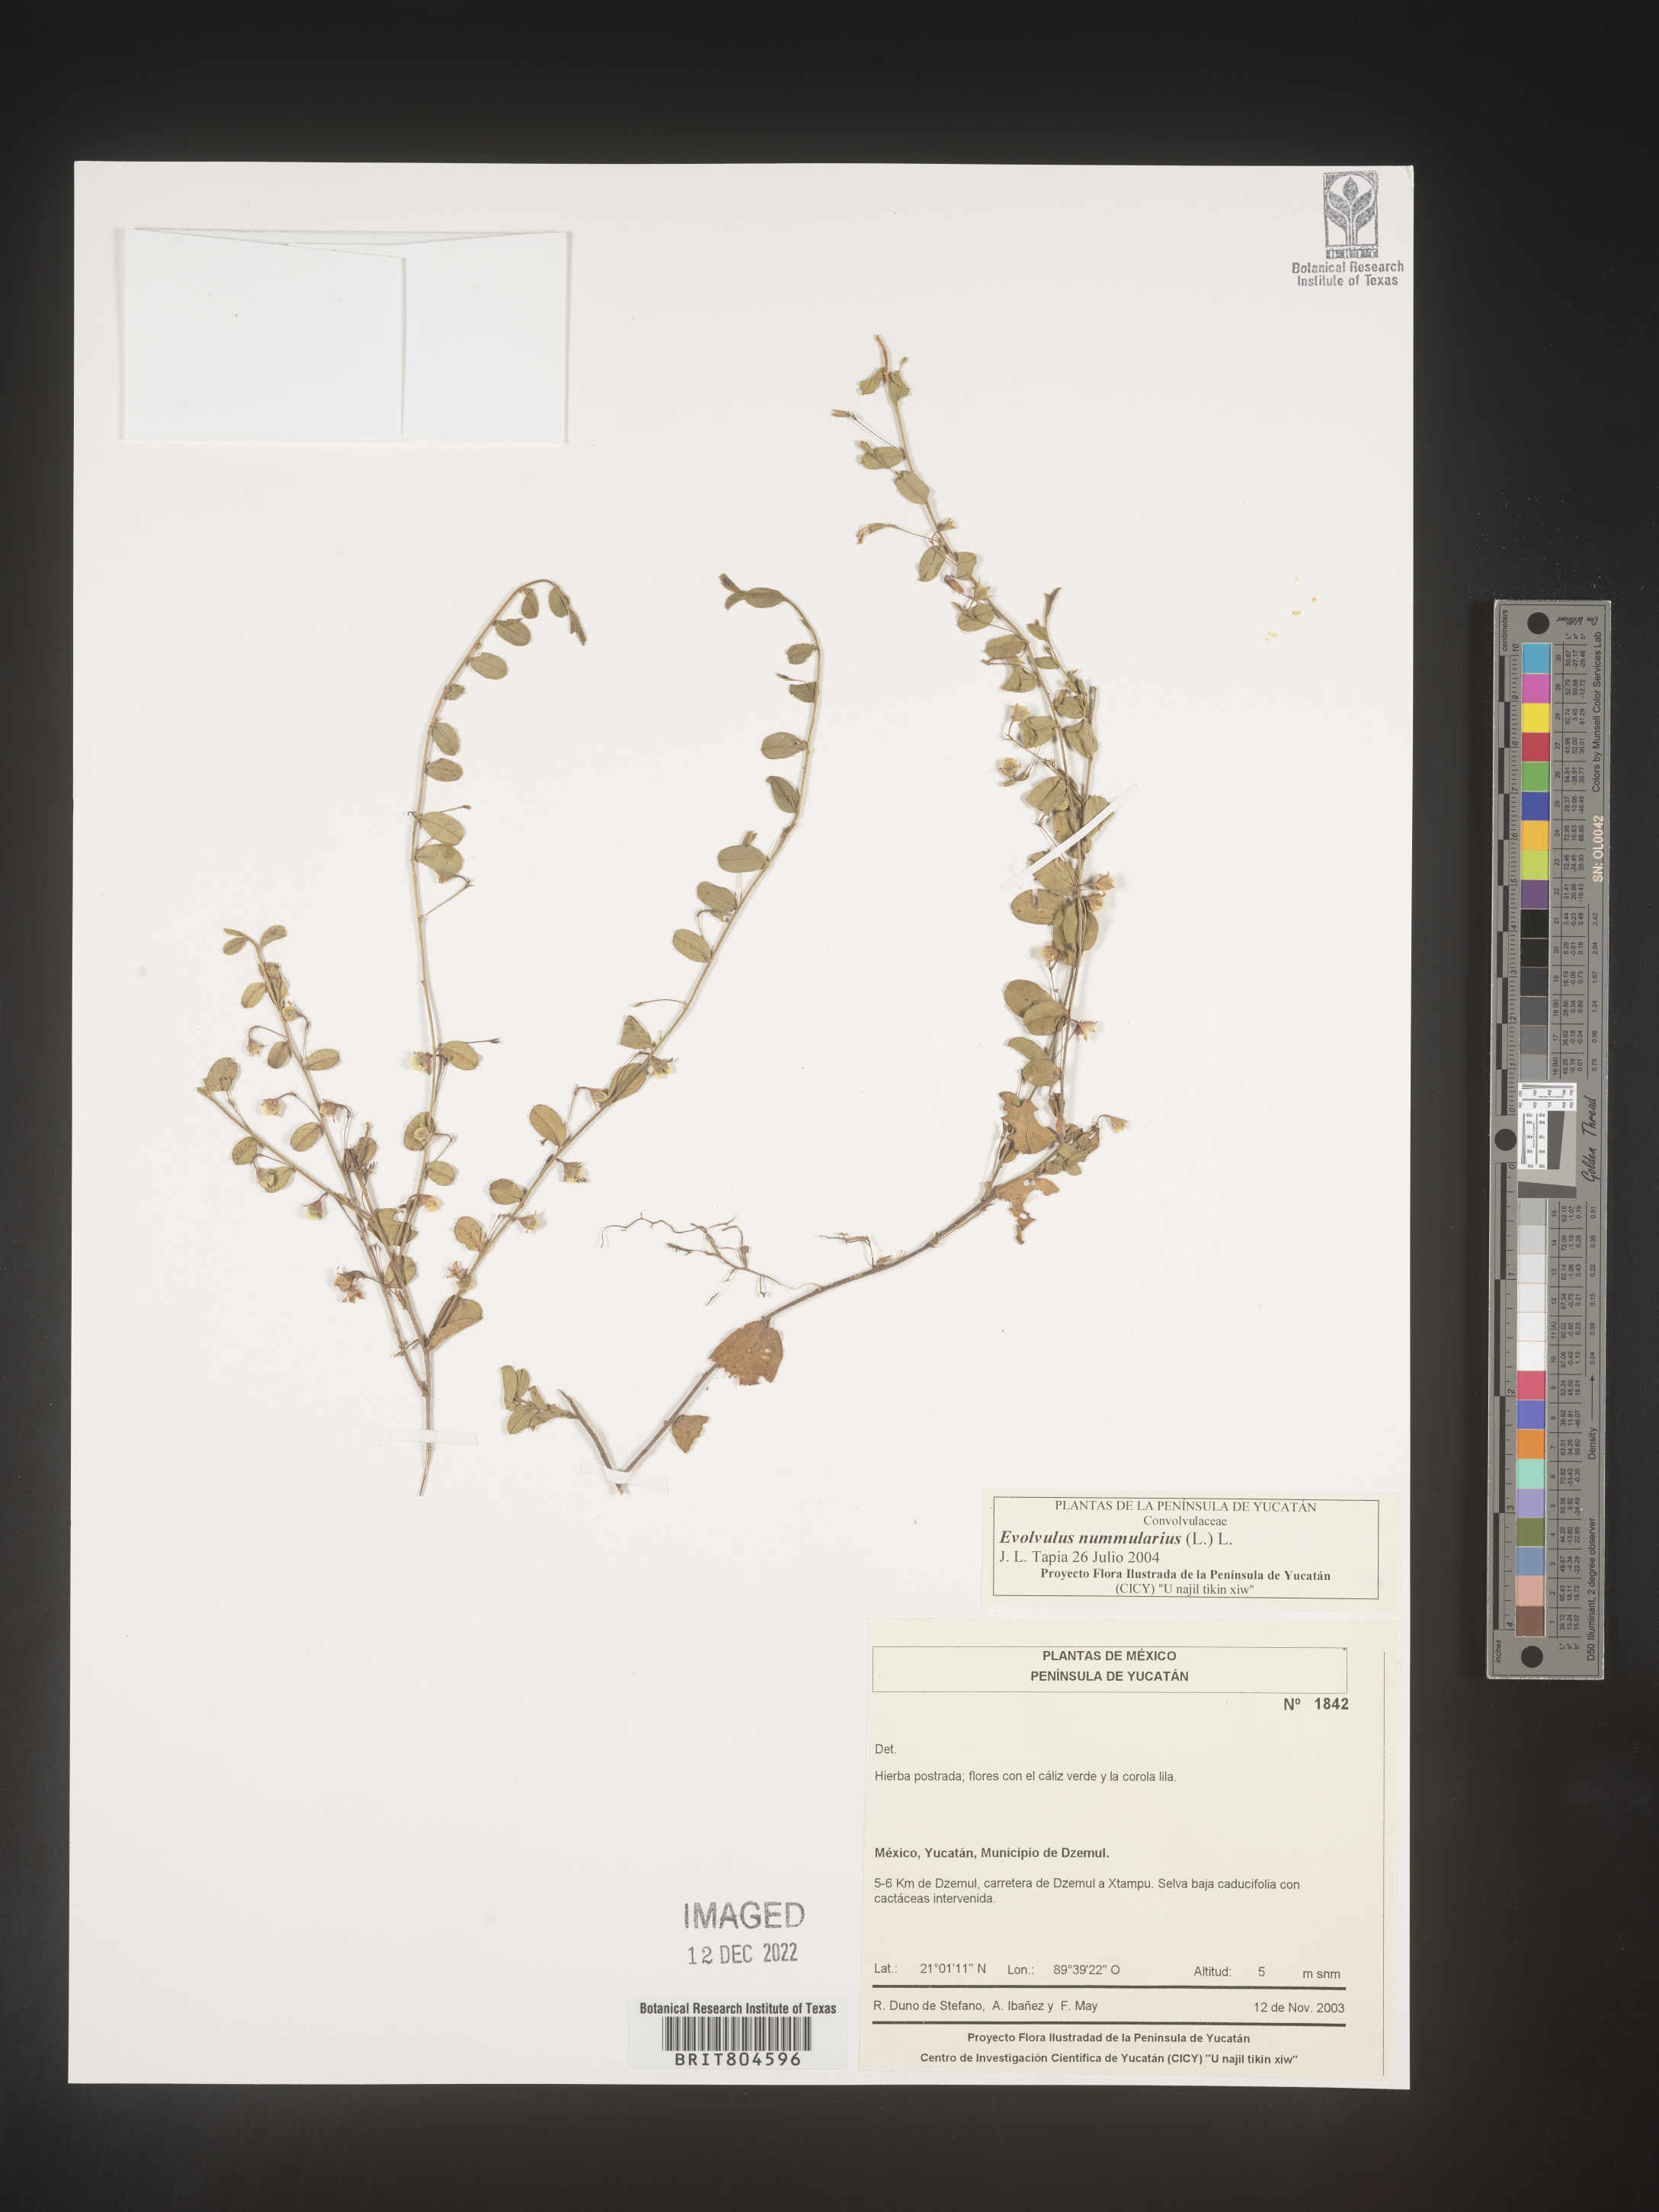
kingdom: Plantae
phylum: Tracheophyta
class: Magnoliopsida
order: Solanales
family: Convolvulaceae
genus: Evolvulus
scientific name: Evolvulus
